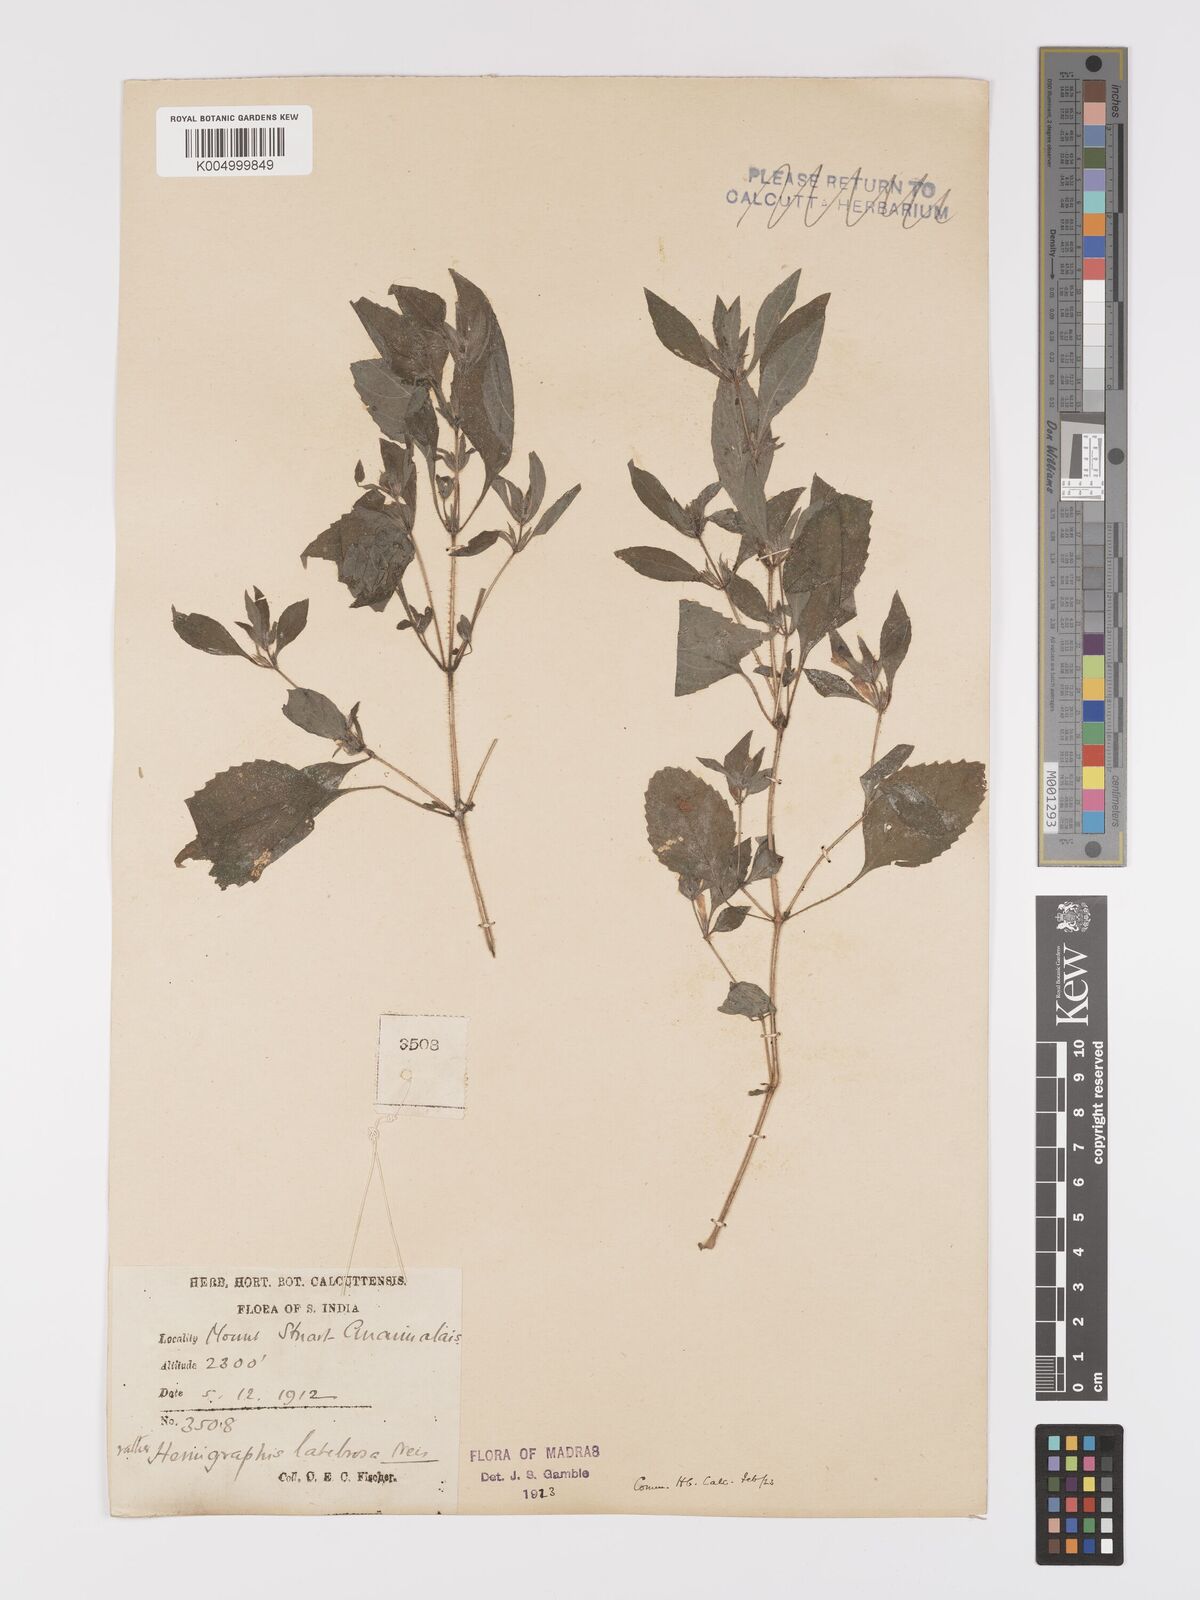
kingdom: Plantae
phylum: Tracheophyta
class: Magnoliopsida
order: Lamiales
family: Acanthaceae
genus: Strobilanthes
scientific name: Strobilanthes pavala
